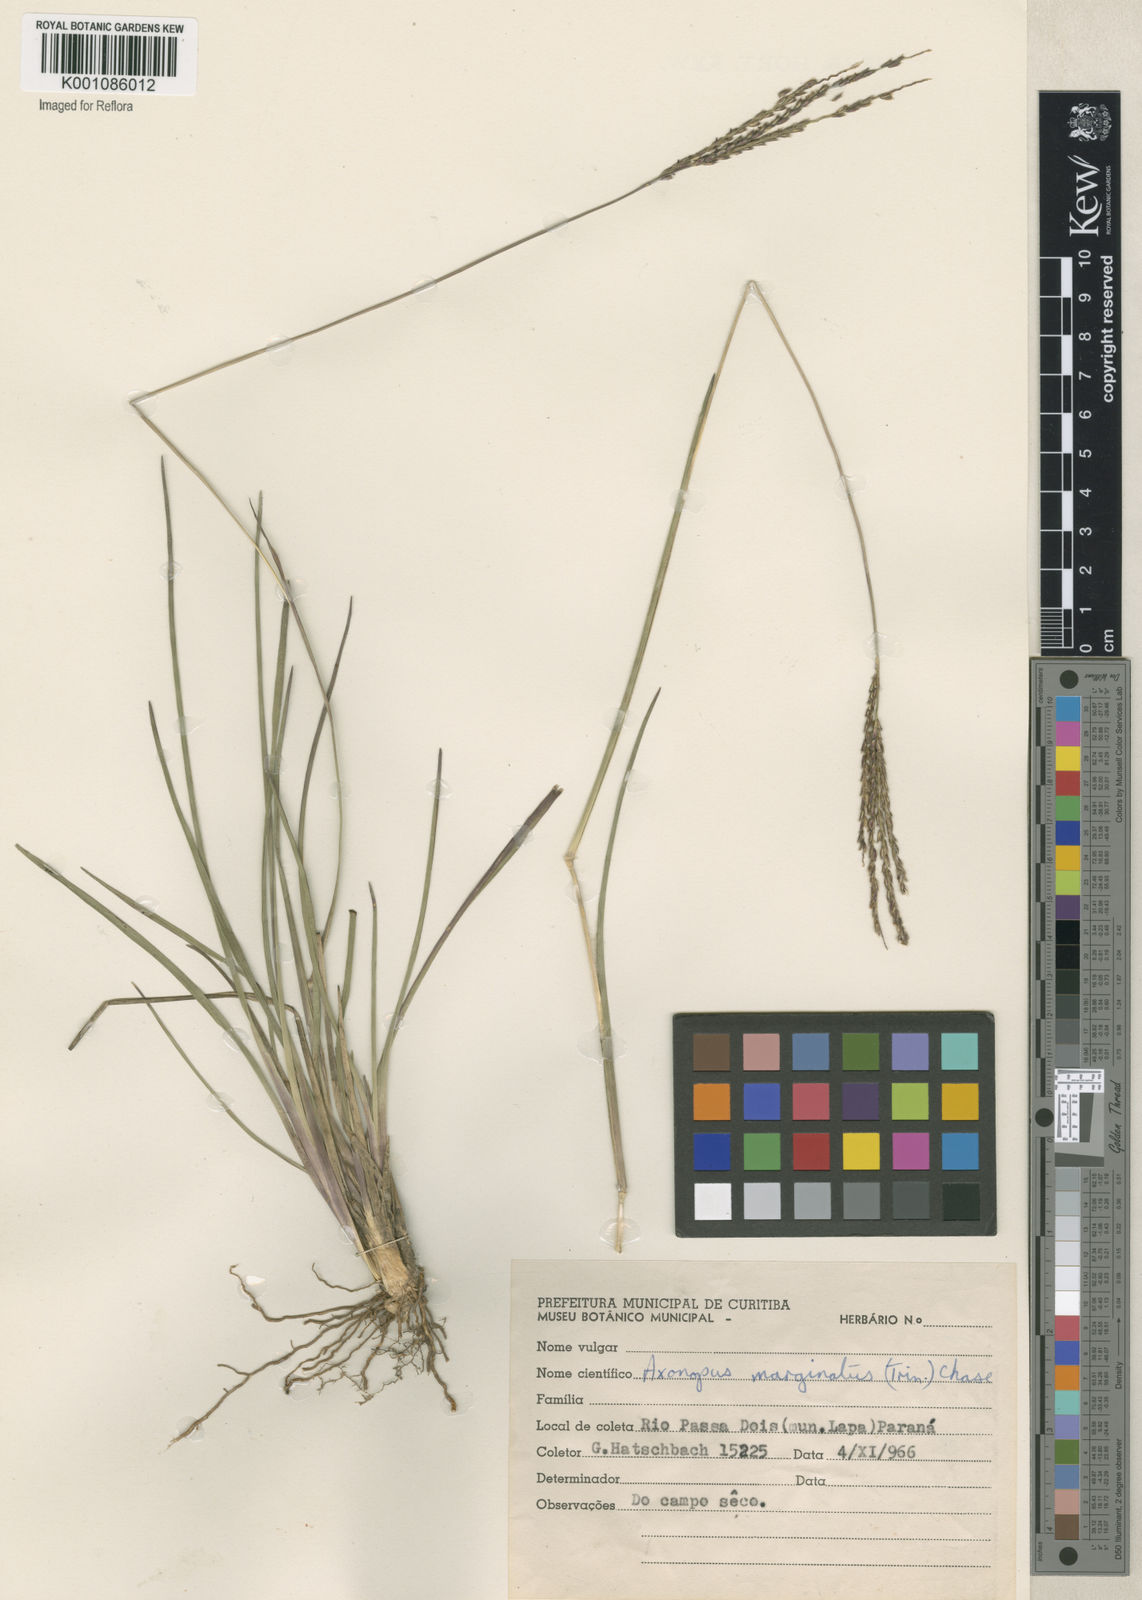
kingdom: Plantae
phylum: Tracheophyta
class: Liliopsida
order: Poales
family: Poaceae
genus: Axonopus
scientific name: Axonopus
